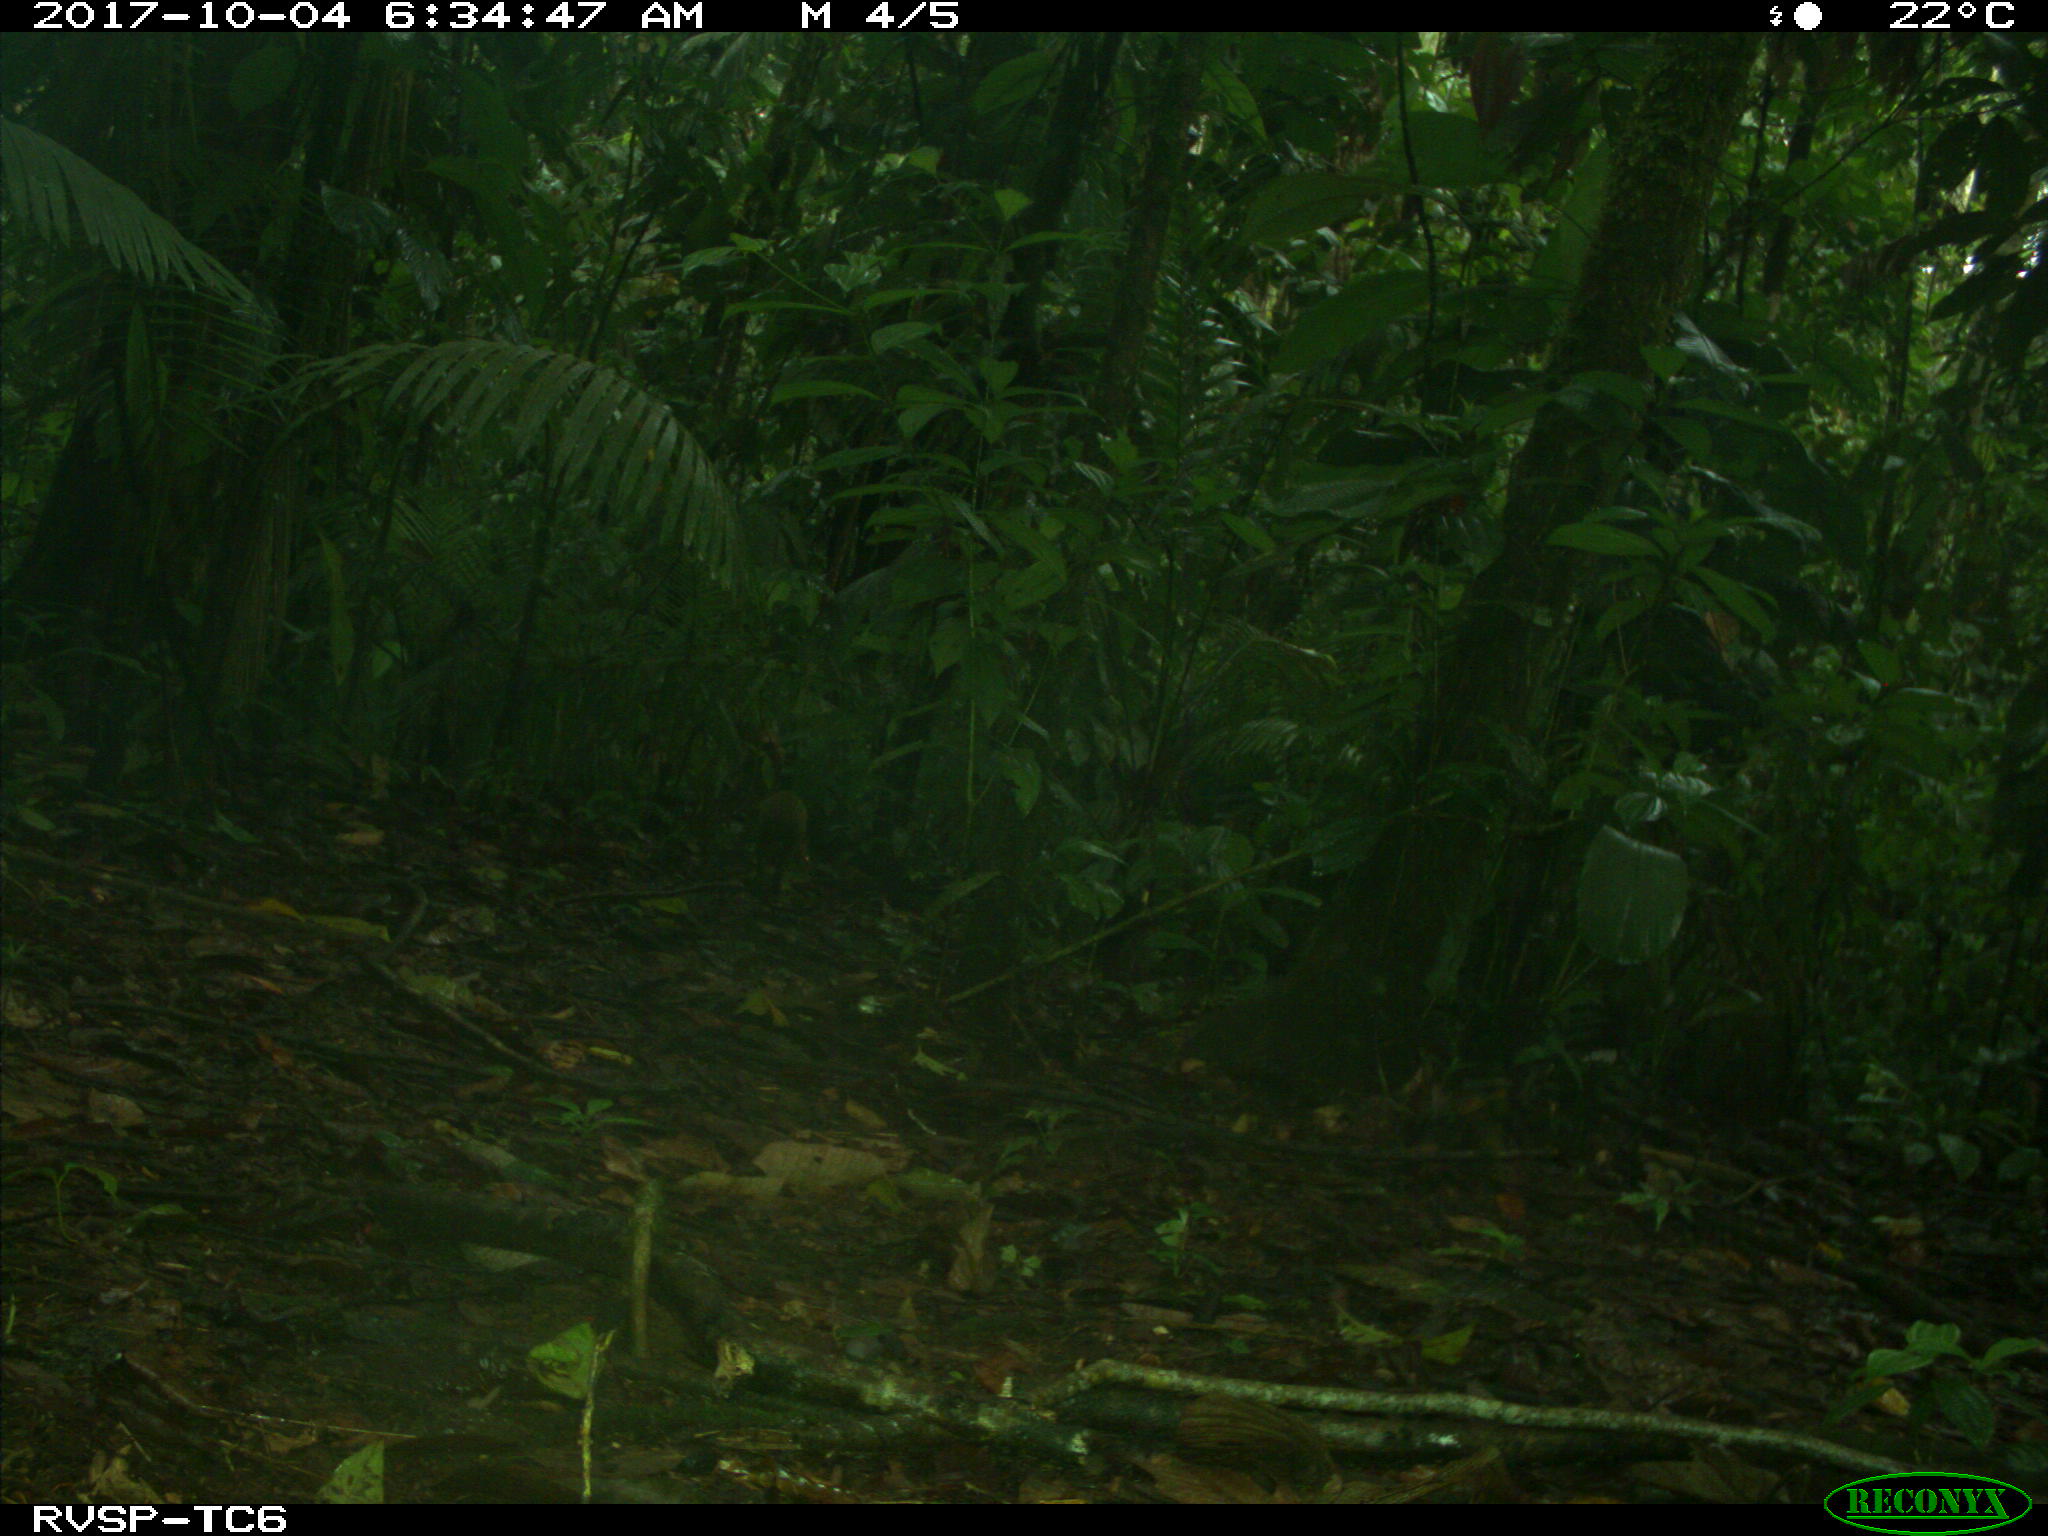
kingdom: Animalia
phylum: Chordata
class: Mammalia
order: Rodentia
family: Dasyproctidae
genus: Dasyprocta
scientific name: Dasyprocta punctata
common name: Central american agouti
